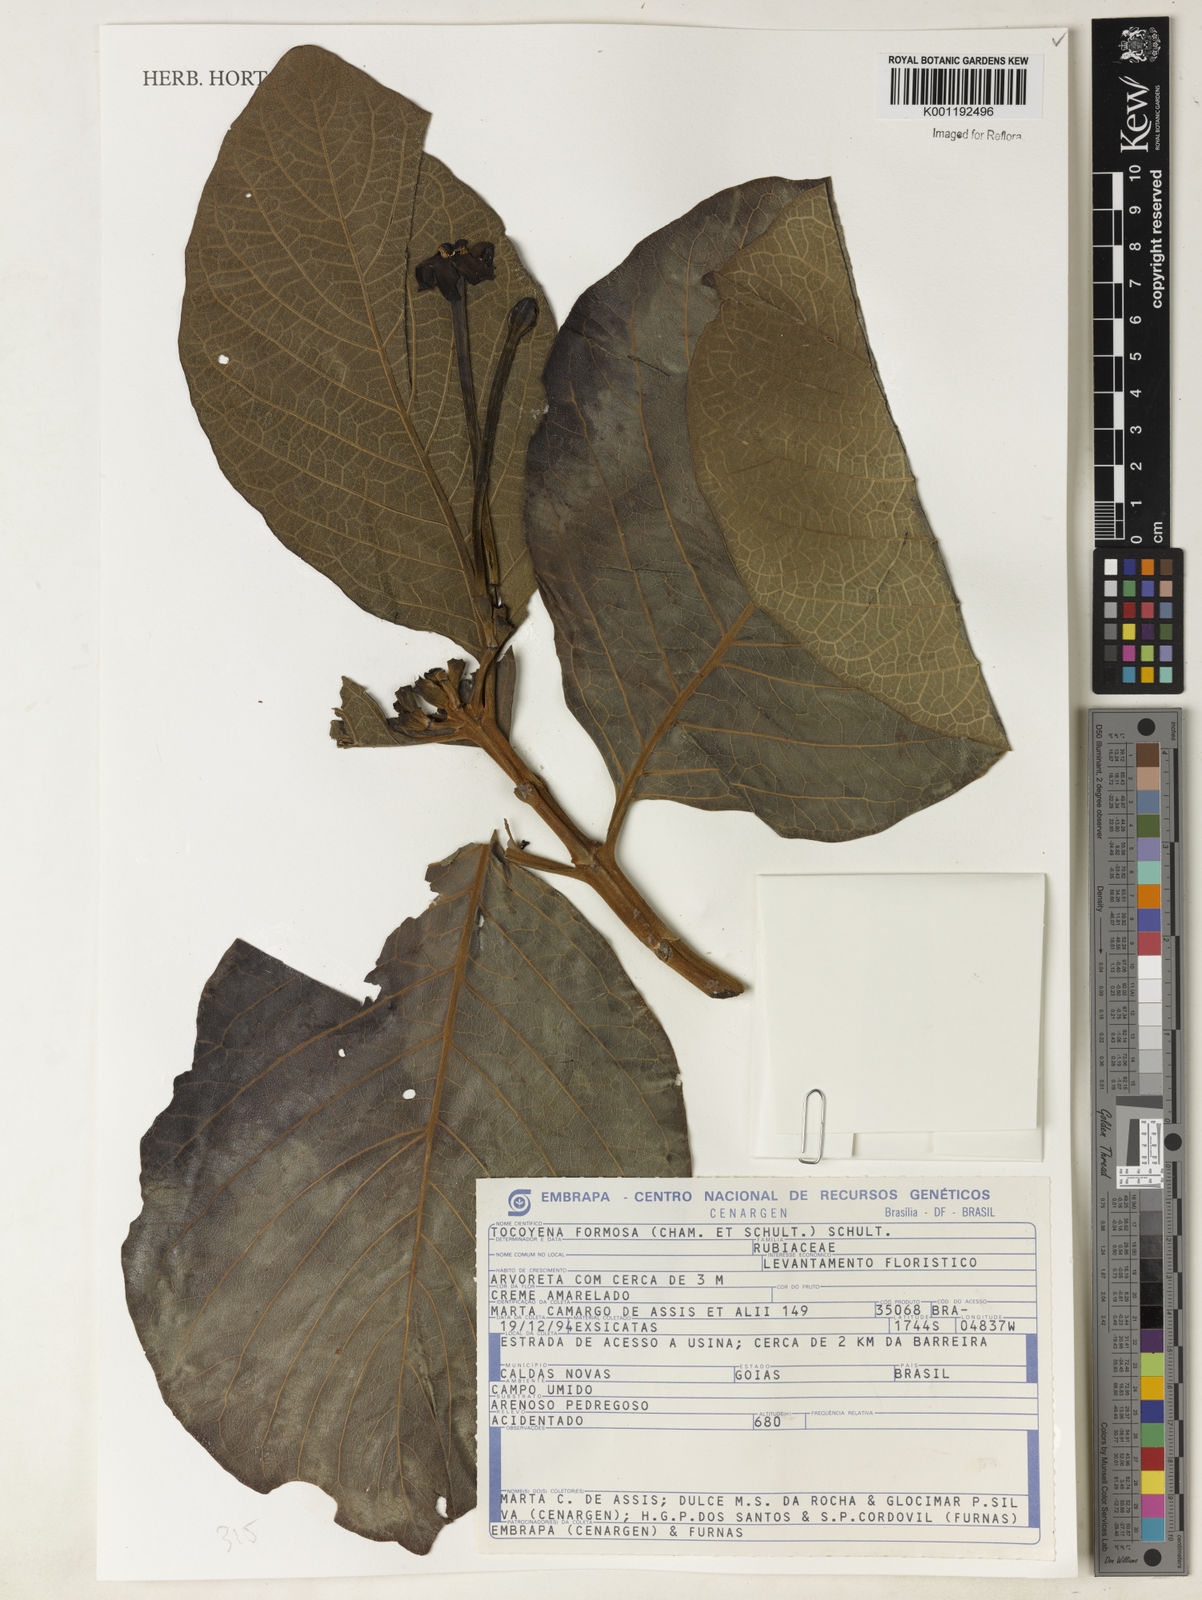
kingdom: Plantae
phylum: Tracheophyta
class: Magnoliopsida
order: Gentianales
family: Rubiaceae
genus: Tocoyena
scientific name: Tocoyena formosa
